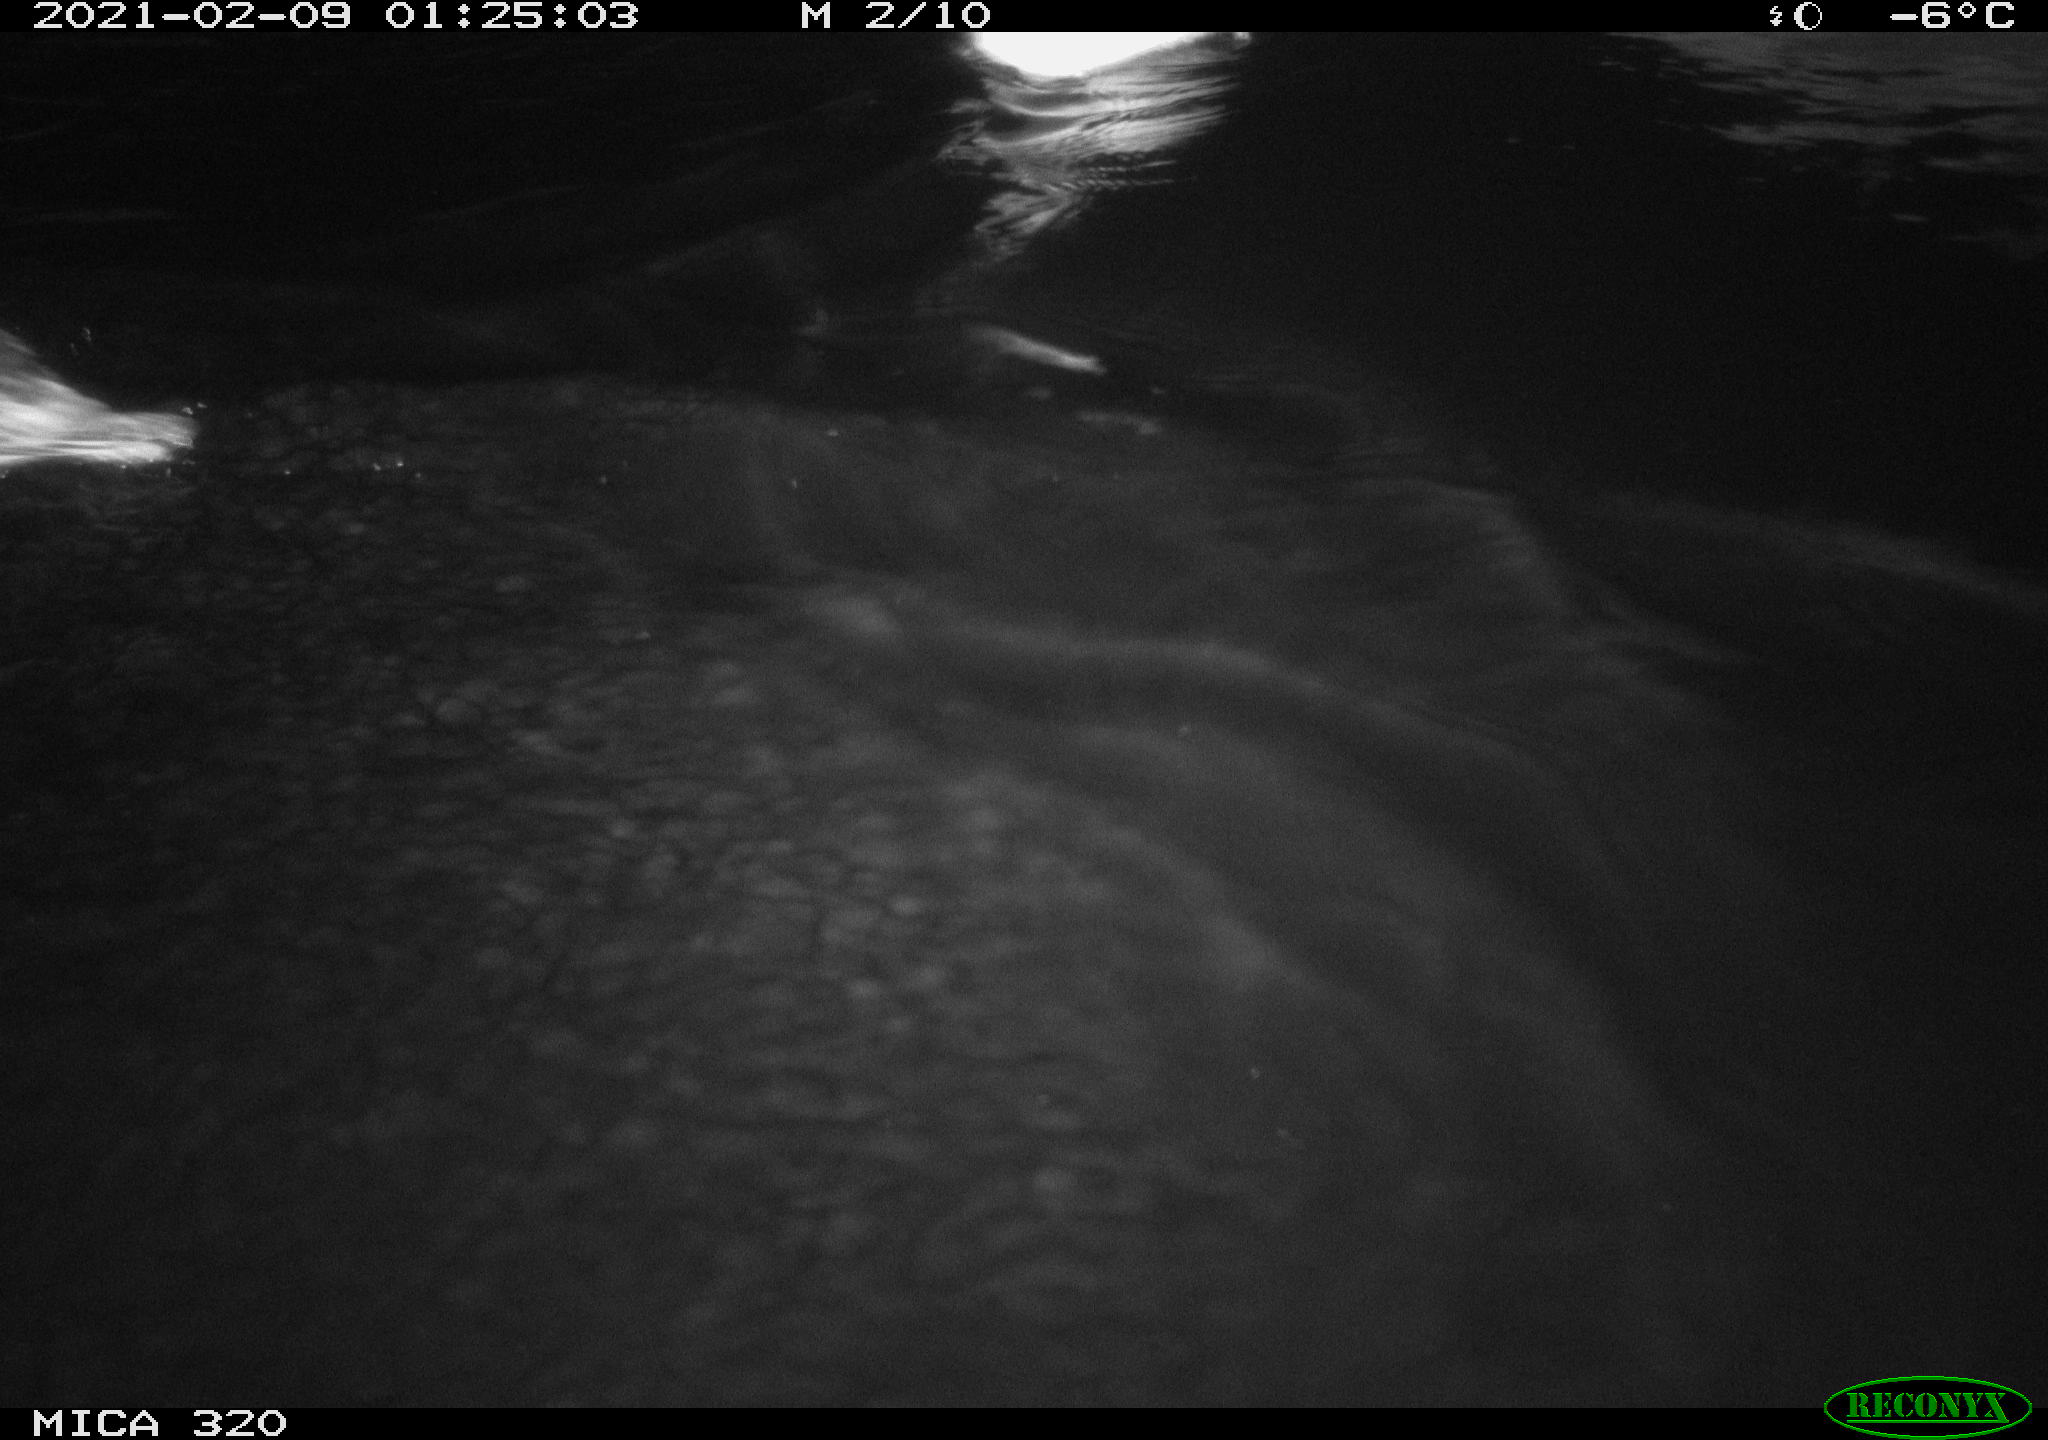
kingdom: Animalia
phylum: Chordata
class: Aves
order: Anseriformes
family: Anatidae
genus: Anas
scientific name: Anas platyrhynchos
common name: Mallard
